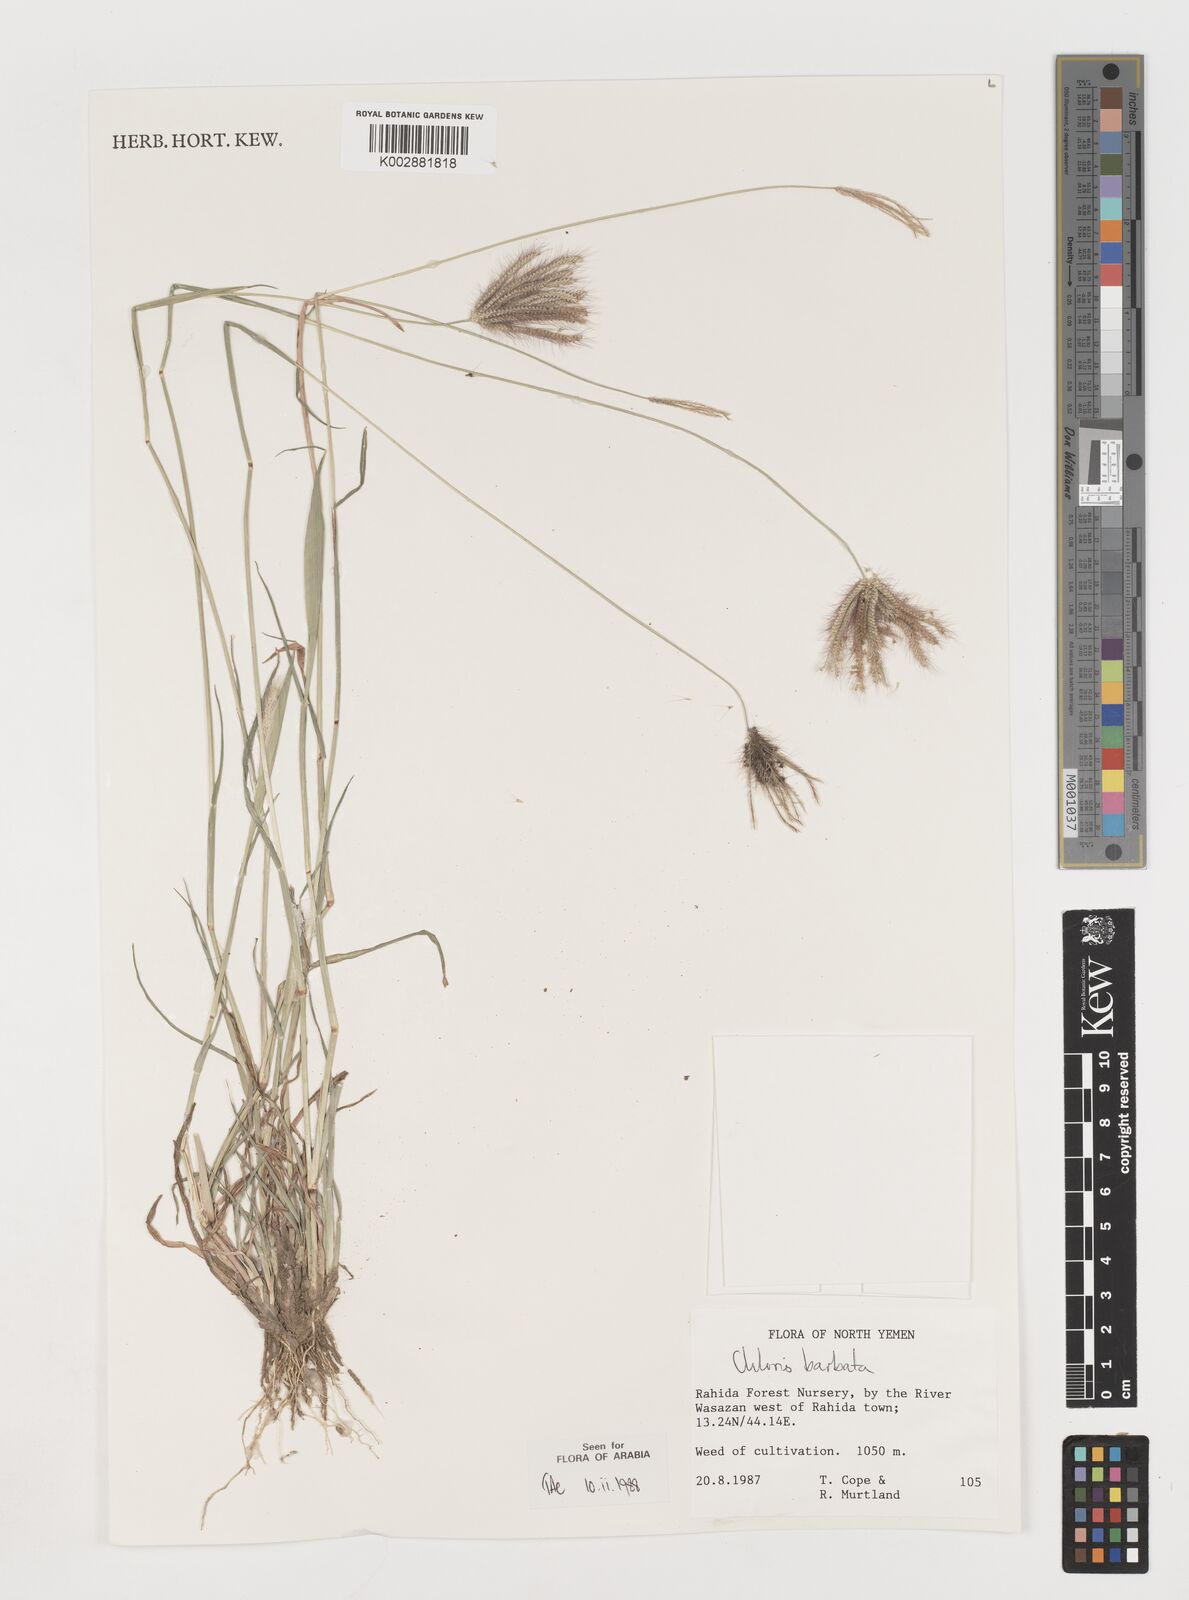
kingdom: Plantae
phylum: Tracheophyta
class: Liliopsida
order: Poales
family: Poaceae
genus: Chloris
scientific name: Chloris barbata
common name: Swollen fingergrass
